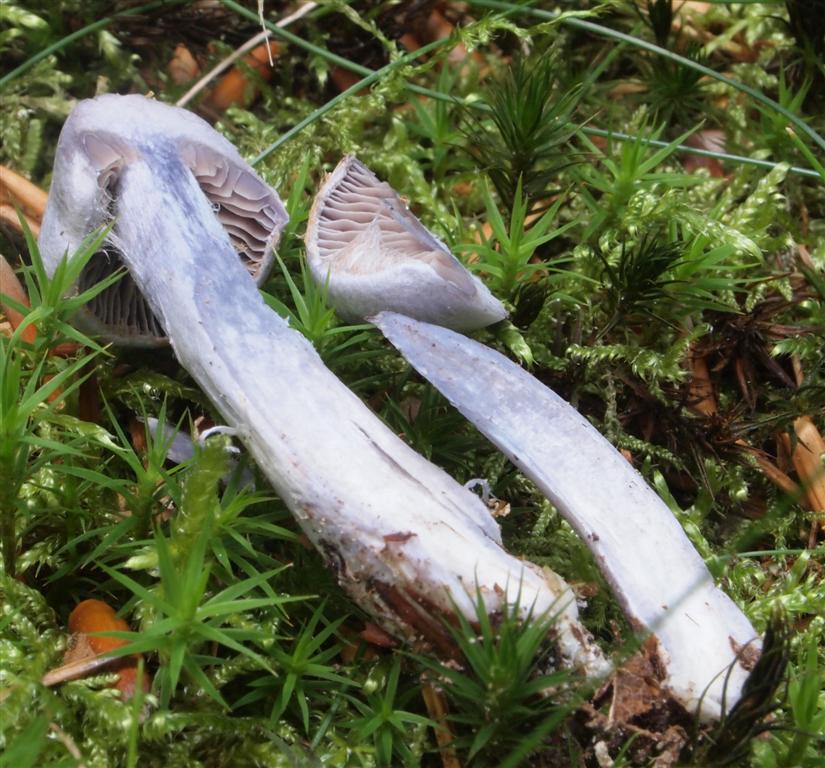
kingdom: Fungi
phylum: Basidiomycota
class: Agaricomycetes
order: Agaricales
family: Cortinariaceae
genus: Cortinarius
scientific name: Cortinarius alboviolaceus
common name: lysviolet slørhat
